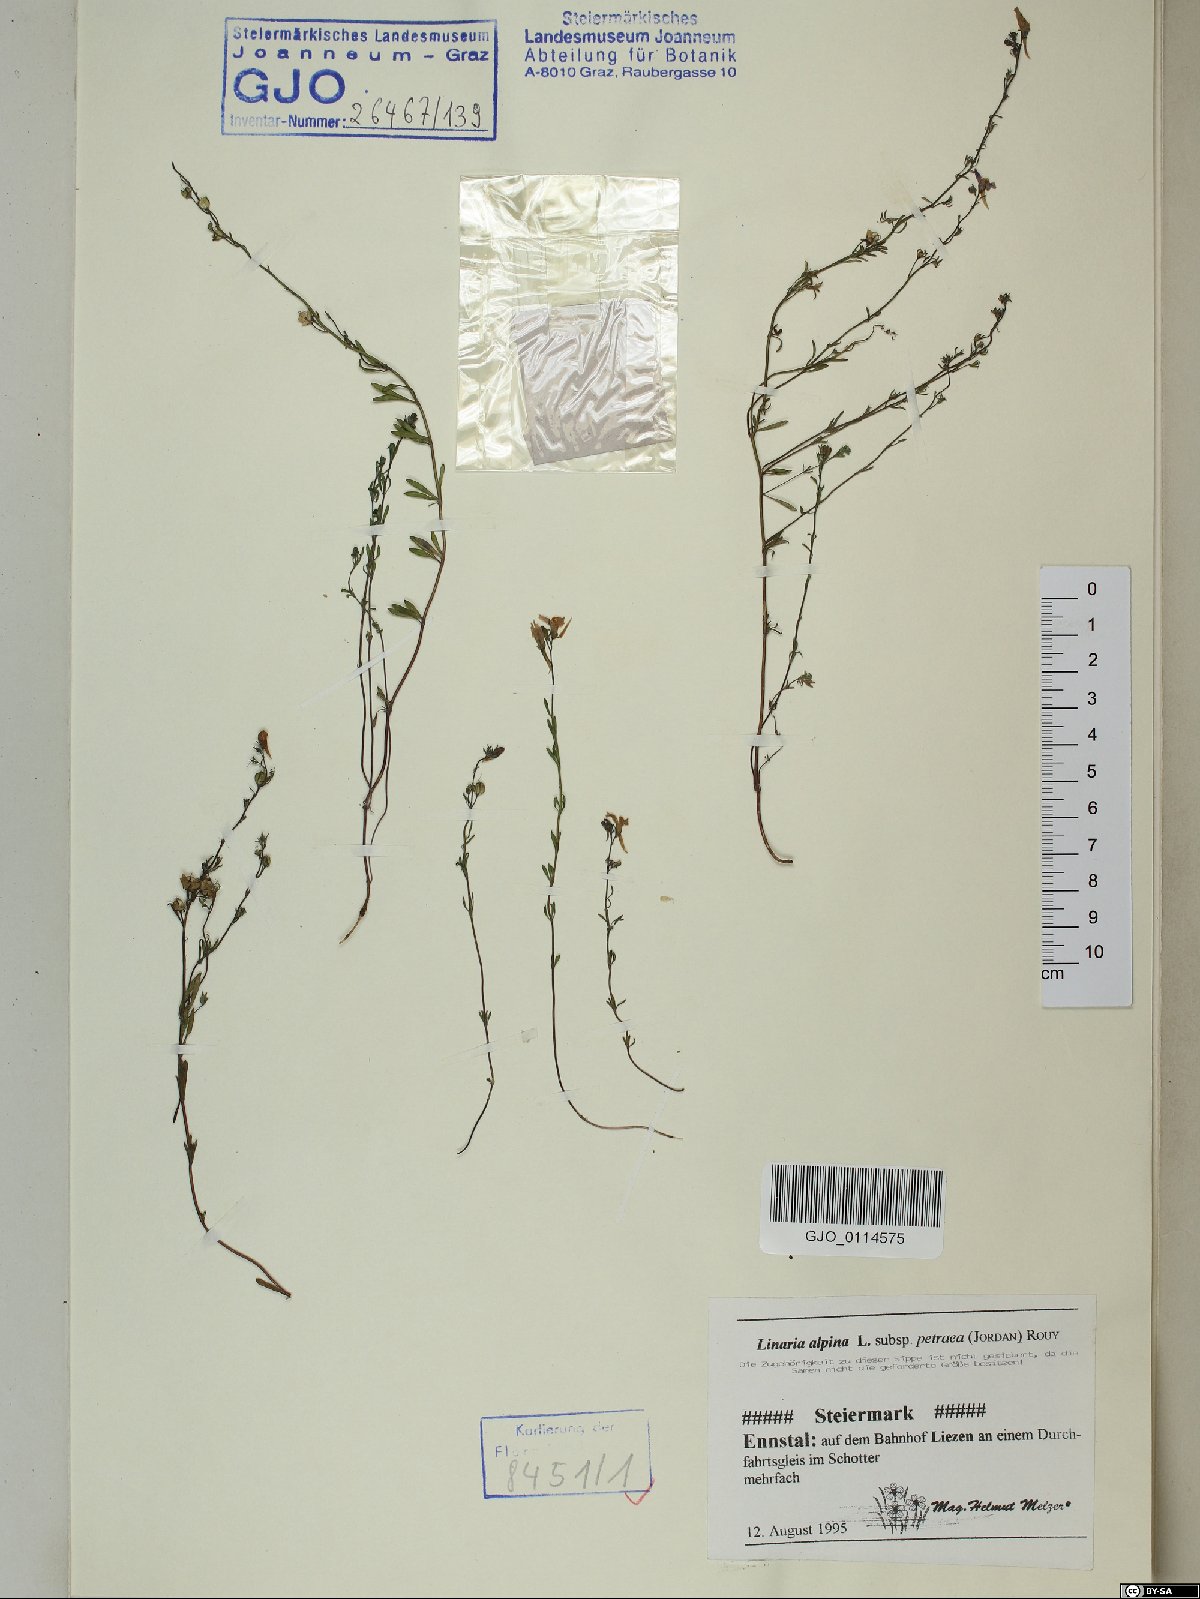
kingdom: Plantae
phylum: Tracheophyta
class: Magnoliopsida
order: Lamiales
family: Plantaginaceae
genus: Linaria
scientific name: Linaria alpina
